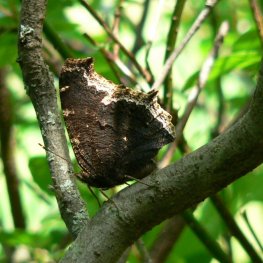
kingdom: Animalia
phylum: Arthropoda
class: Insecta
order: Lepidoptera
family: Nymphalidae
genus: Nymphalis
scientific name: Nymphalis antiopa
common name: Mourning Cloak
